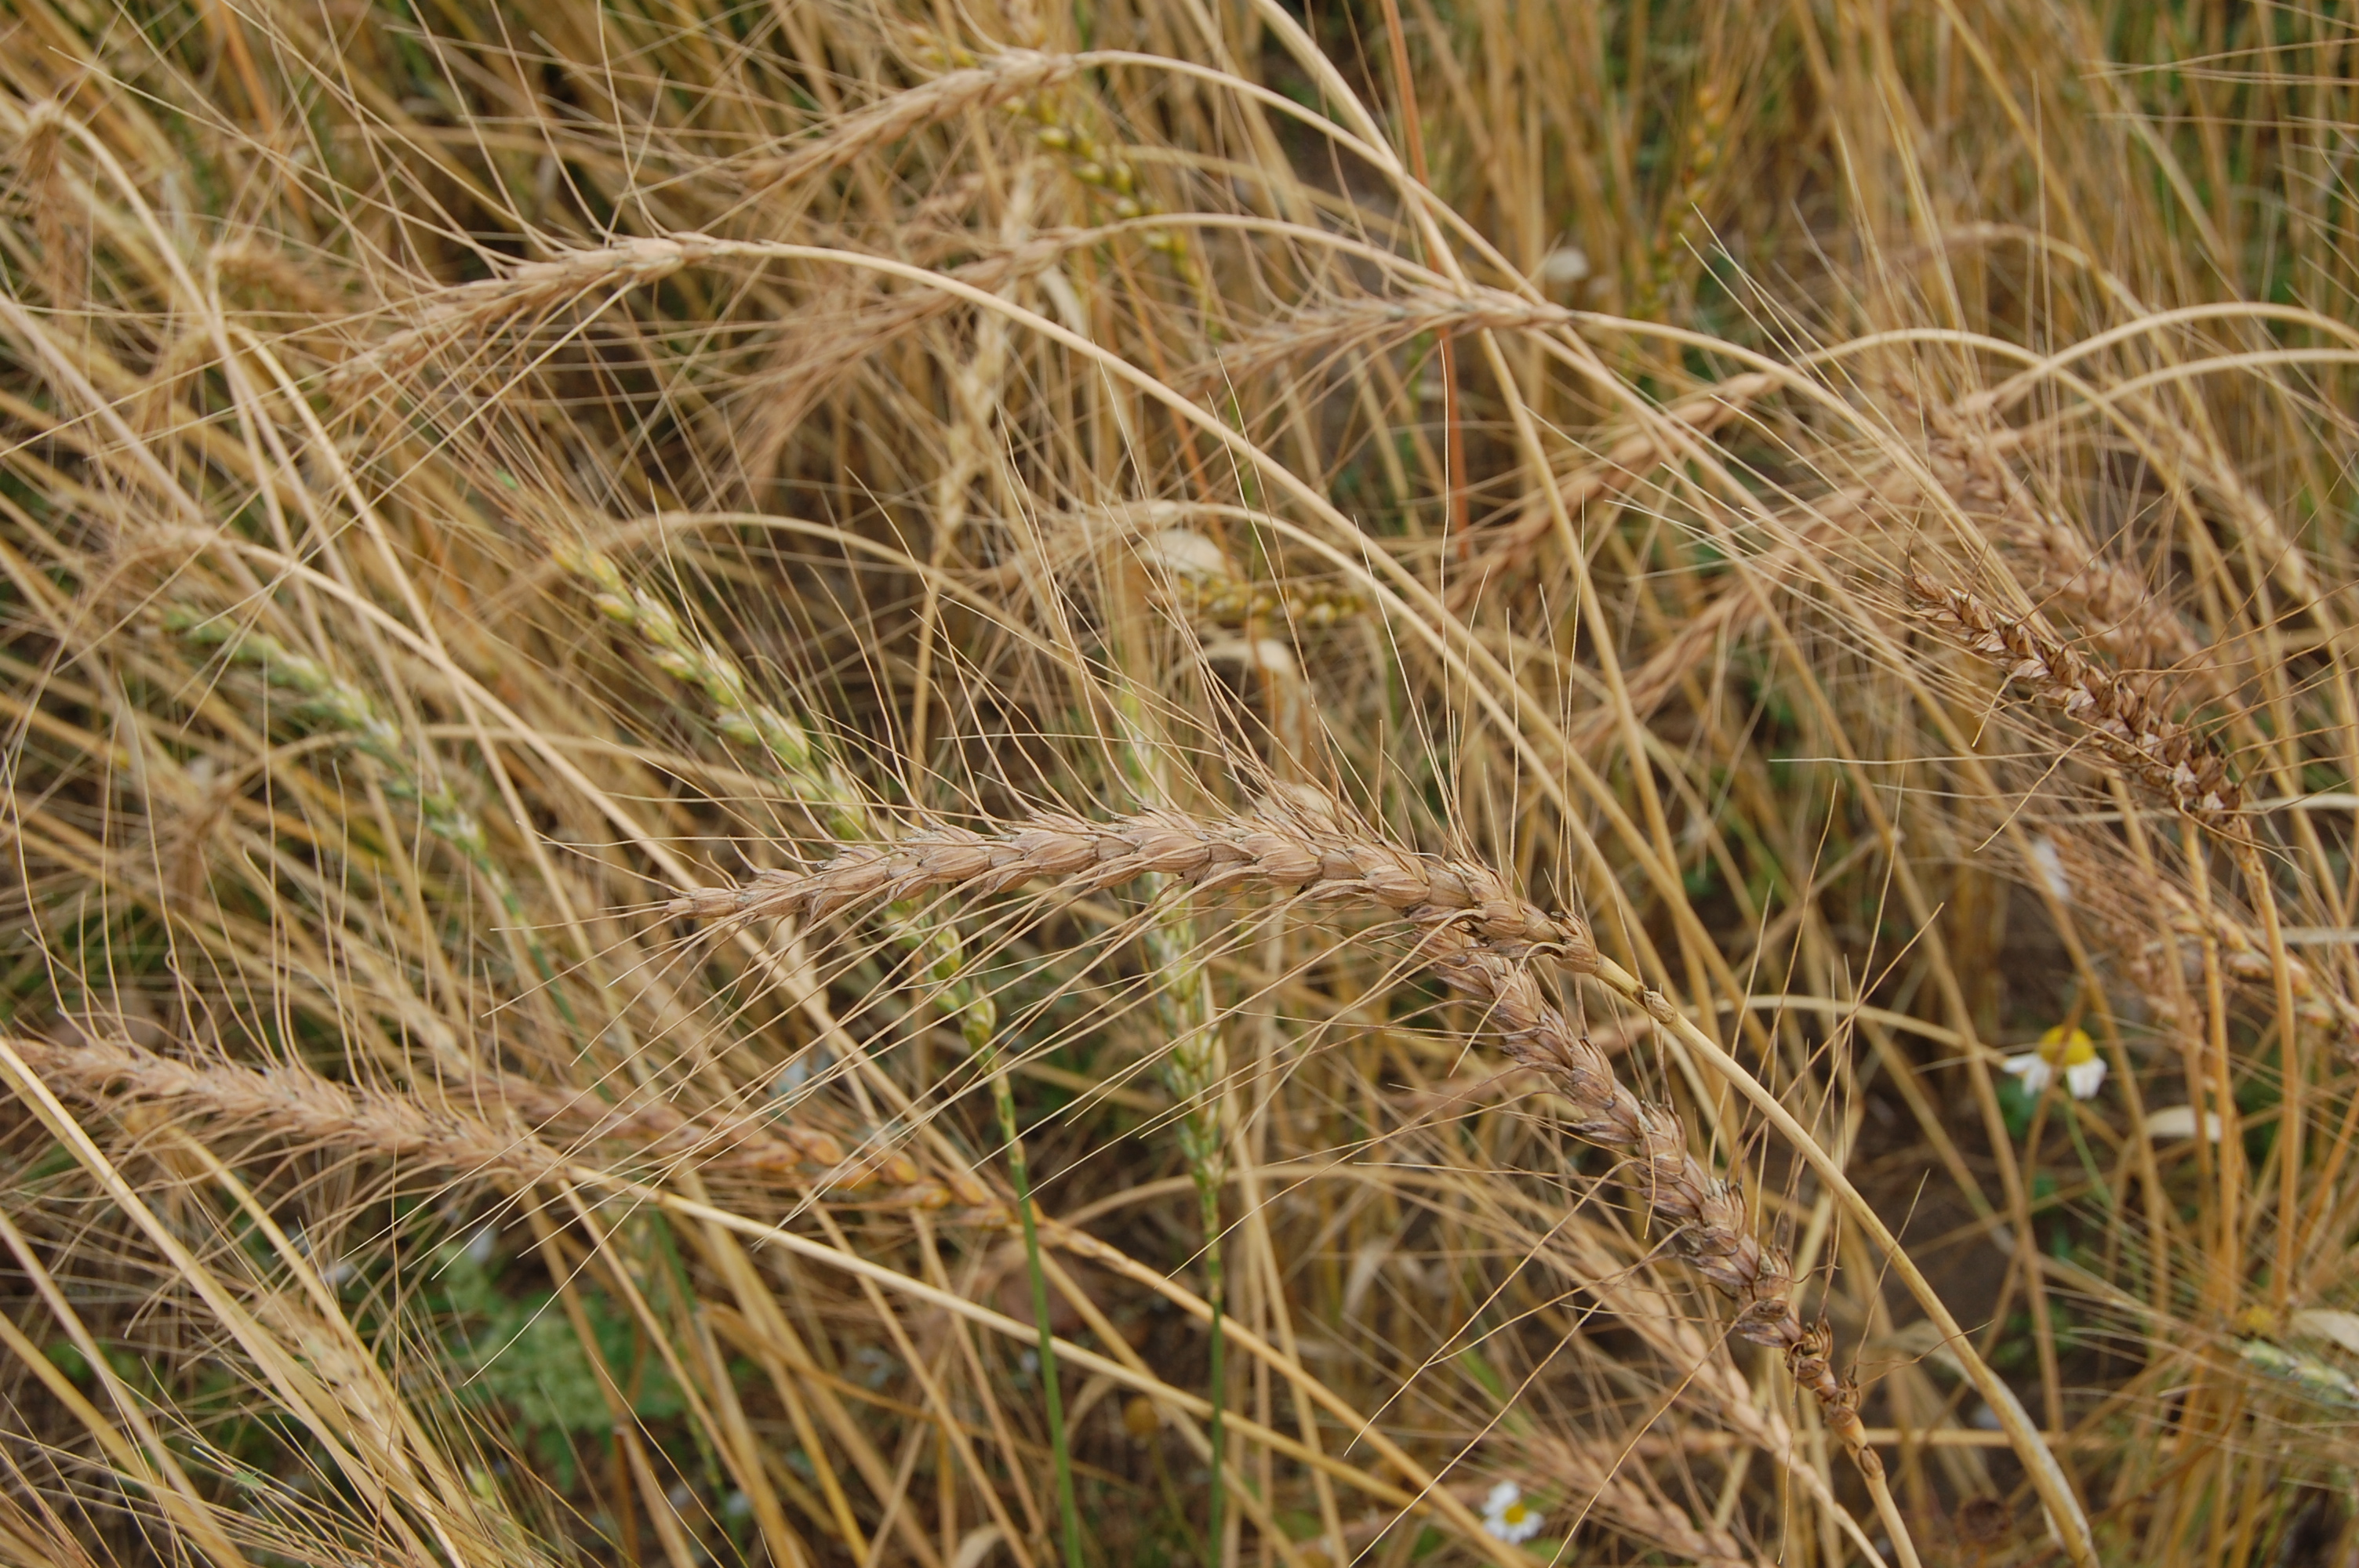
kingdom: Plantae
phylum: Tracheophyta
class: Liliopsida
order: Poales
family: Poaceae
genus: Triticum
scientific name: Triticum aestivum
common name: Common wheat
